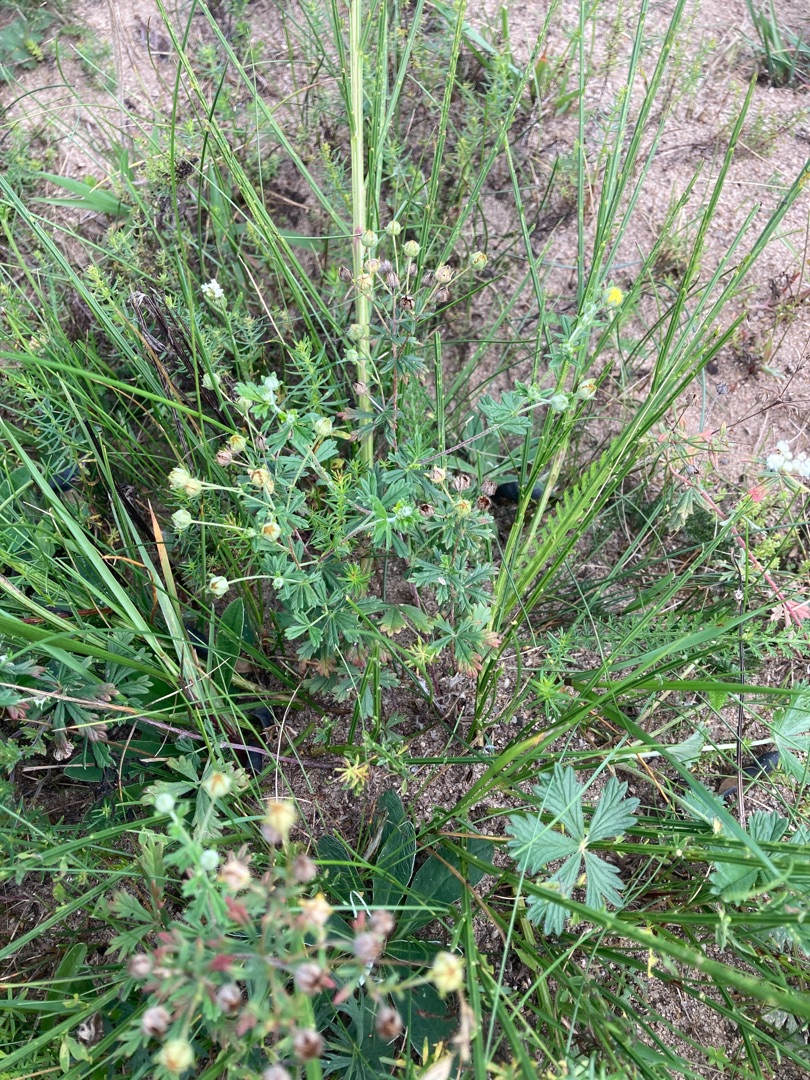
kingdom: Plantae
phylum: Tracheophyta
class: Magnoliopsida
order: Rosales
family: Rosaceae
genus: Potentilla
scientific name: Potentilla argentea
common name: Sølv-potentil
